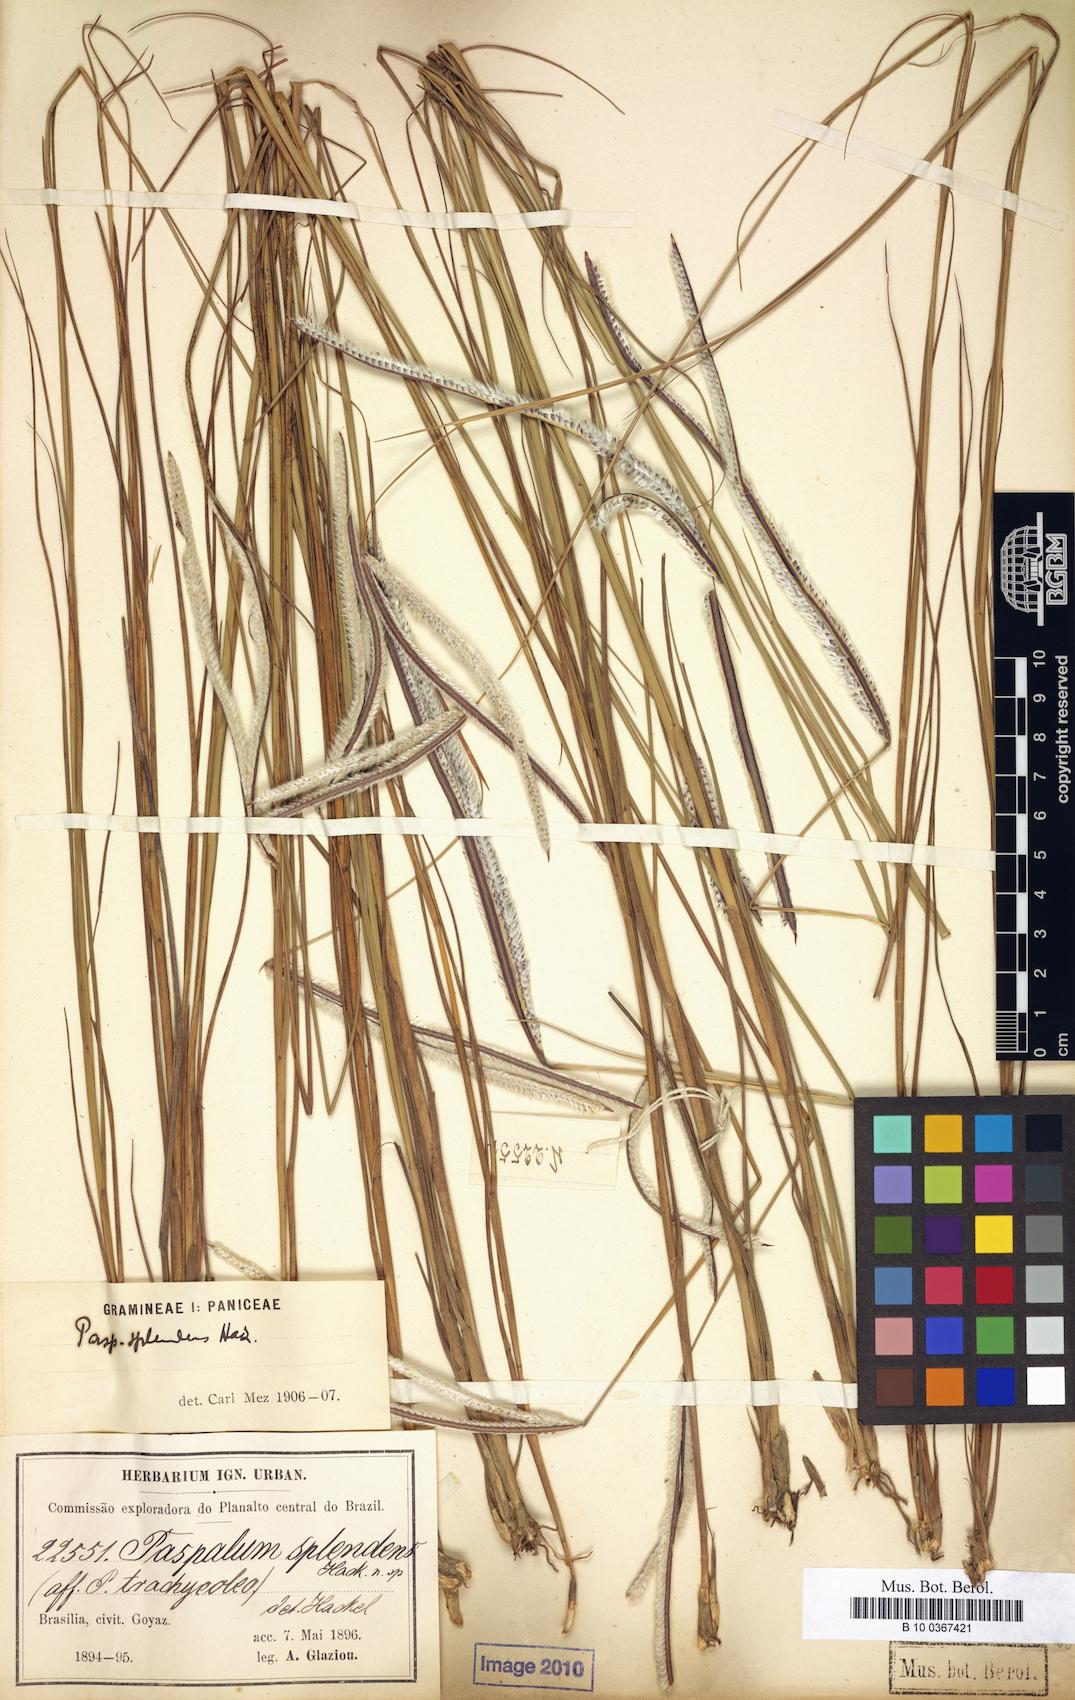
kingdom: Plantae
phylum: Tracheophyta
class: Liliopsida
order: Poales
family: Poaceae
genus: Paspalum
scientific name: Paspalum eucomum
